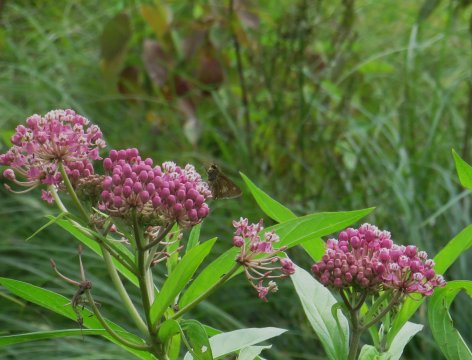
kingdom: Animalia
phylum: Arthropoda
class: Insecta
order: Lepidoptera
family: Hesperiidae
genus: Polites
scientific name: Polites egeremet
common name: Northern Broken-Dash
